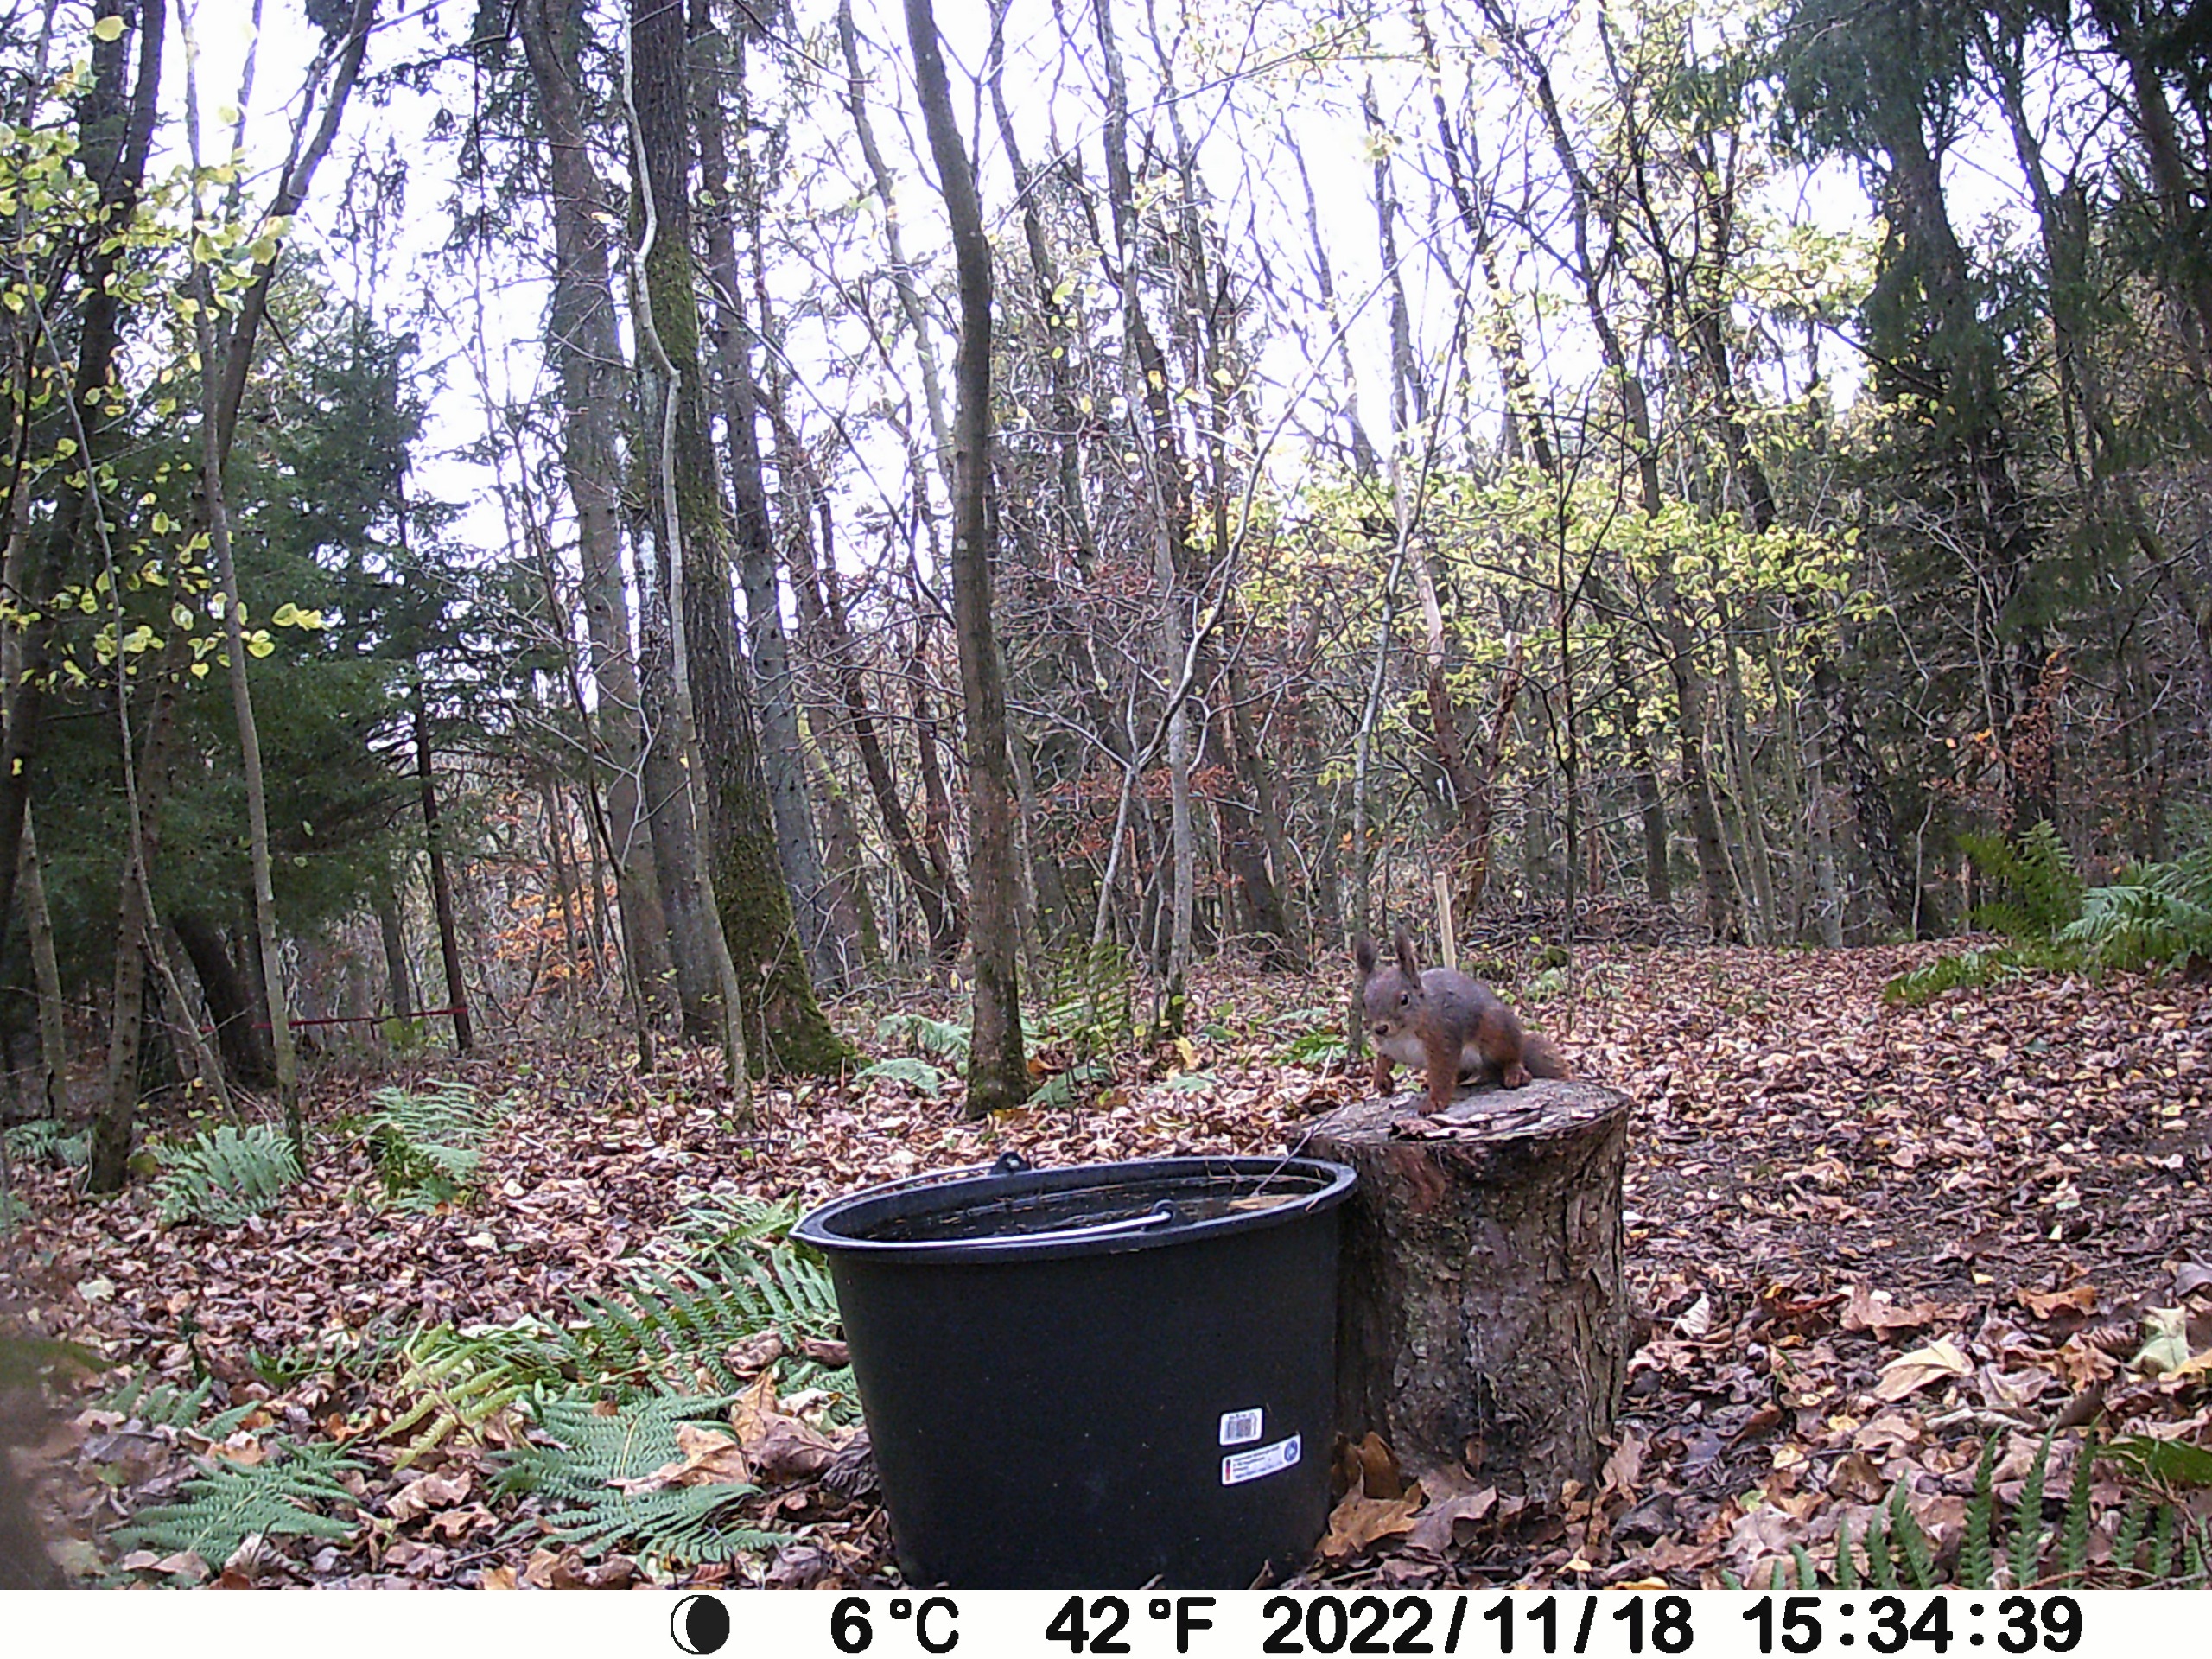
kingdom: Animalia
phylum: Chordata
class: Mammalia
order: Rodentia
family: Sciuridae
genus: Sciurus
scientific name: Sciurus vulgaris
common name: Egern
